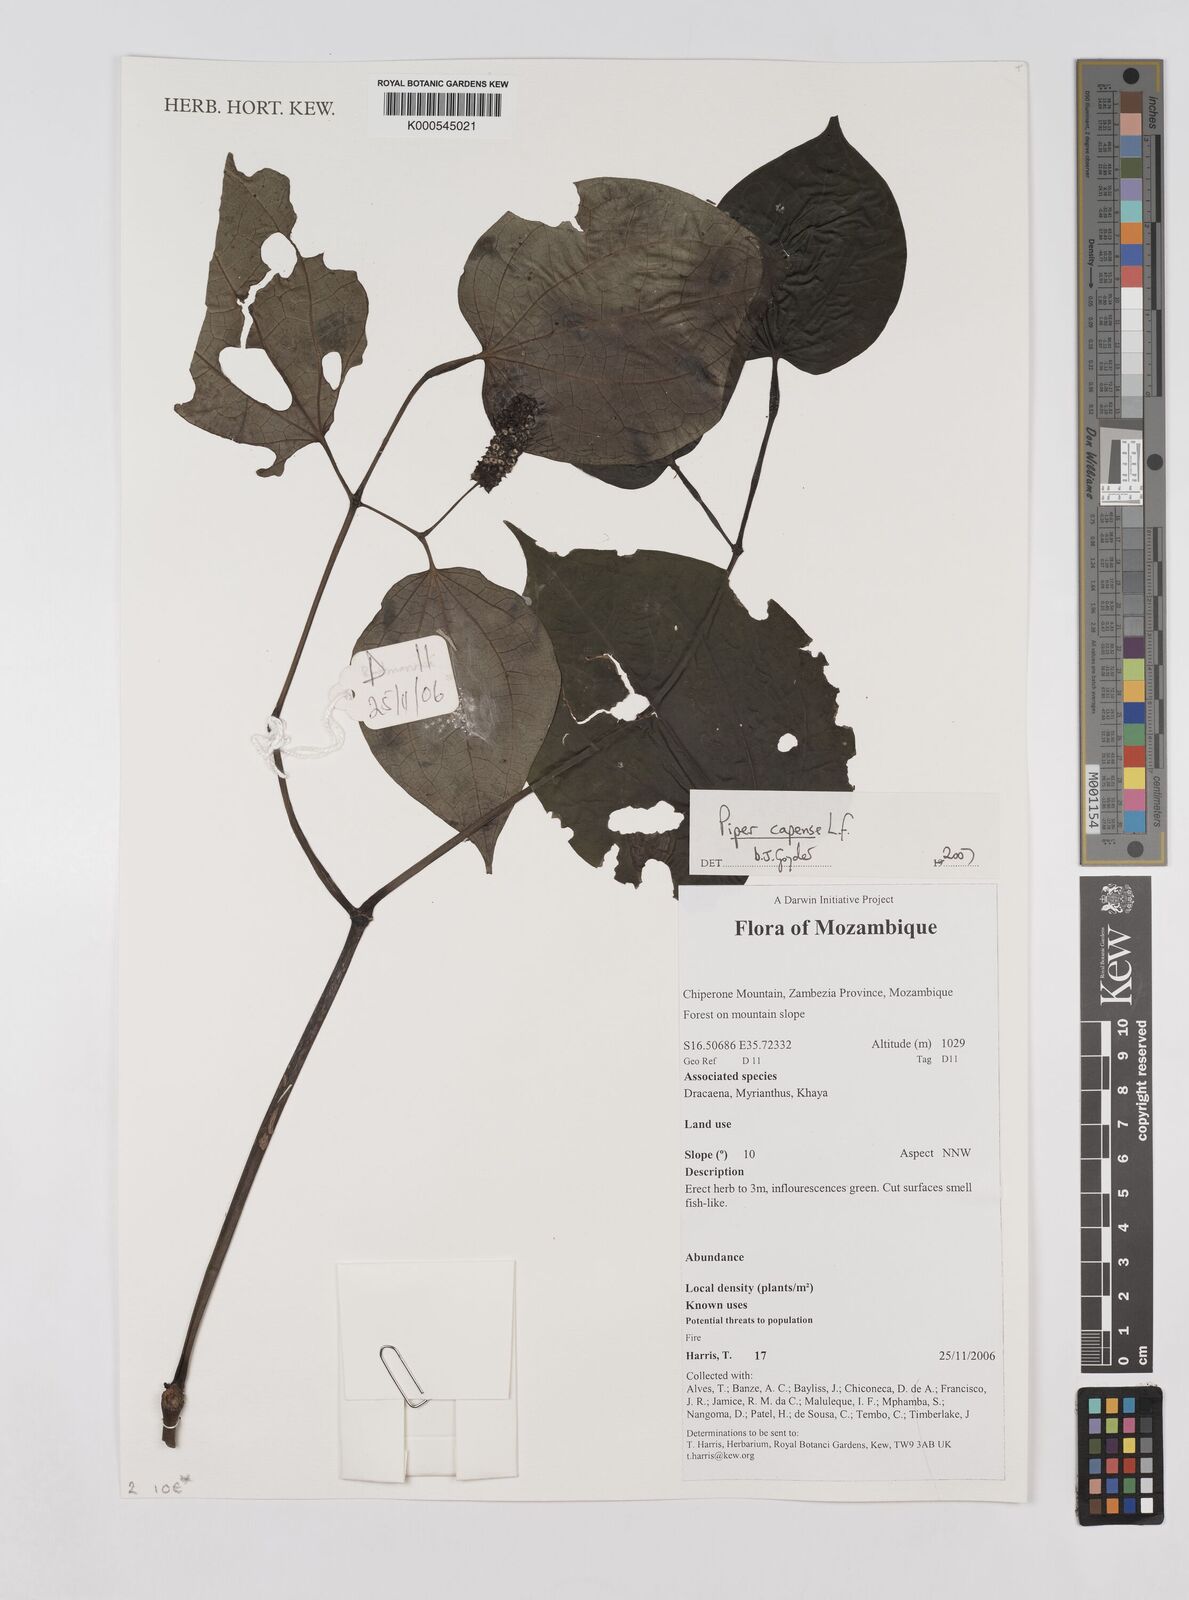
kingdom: Plantae
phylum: Tracheophyta
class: Magnoliopsida
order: Piperales
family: Piperaceae
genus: Piper
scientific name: Piper capense
